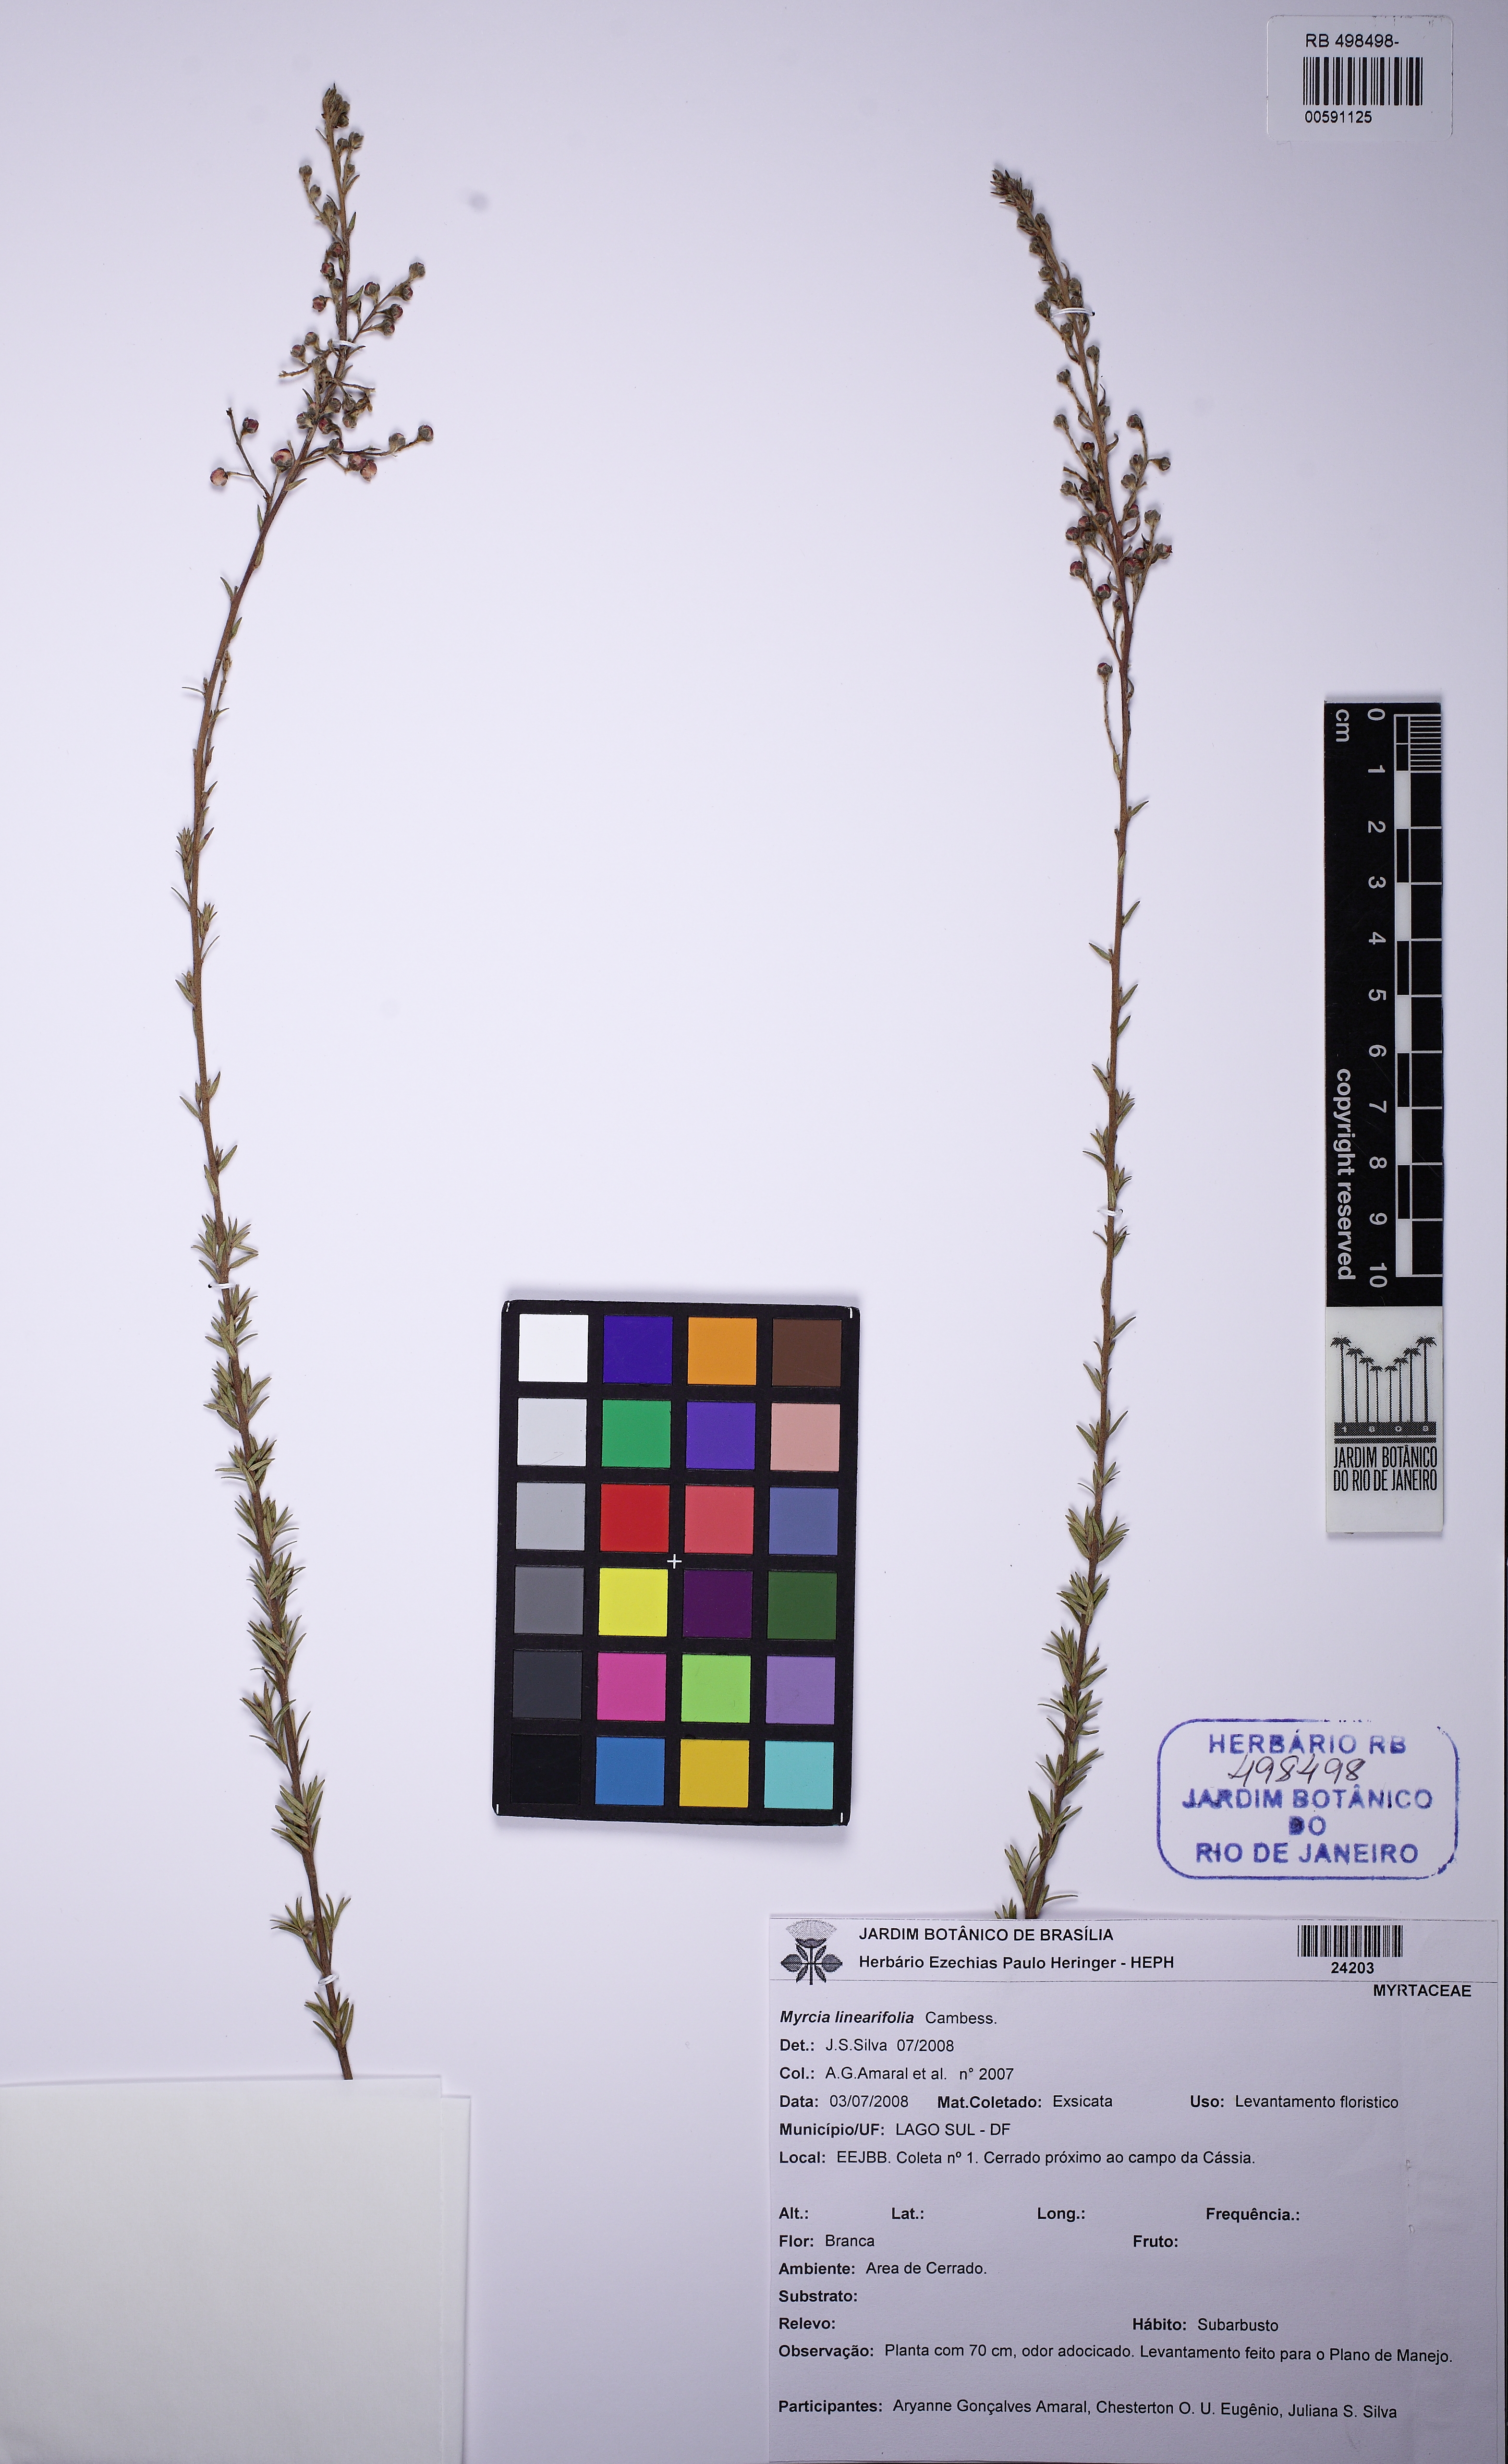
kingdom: Plantae
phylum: Tracheophyta
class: Magnoliopsida
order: Myrtales
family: Myrtaceae
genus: Myrcia
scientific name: Myrcia linearifolia
